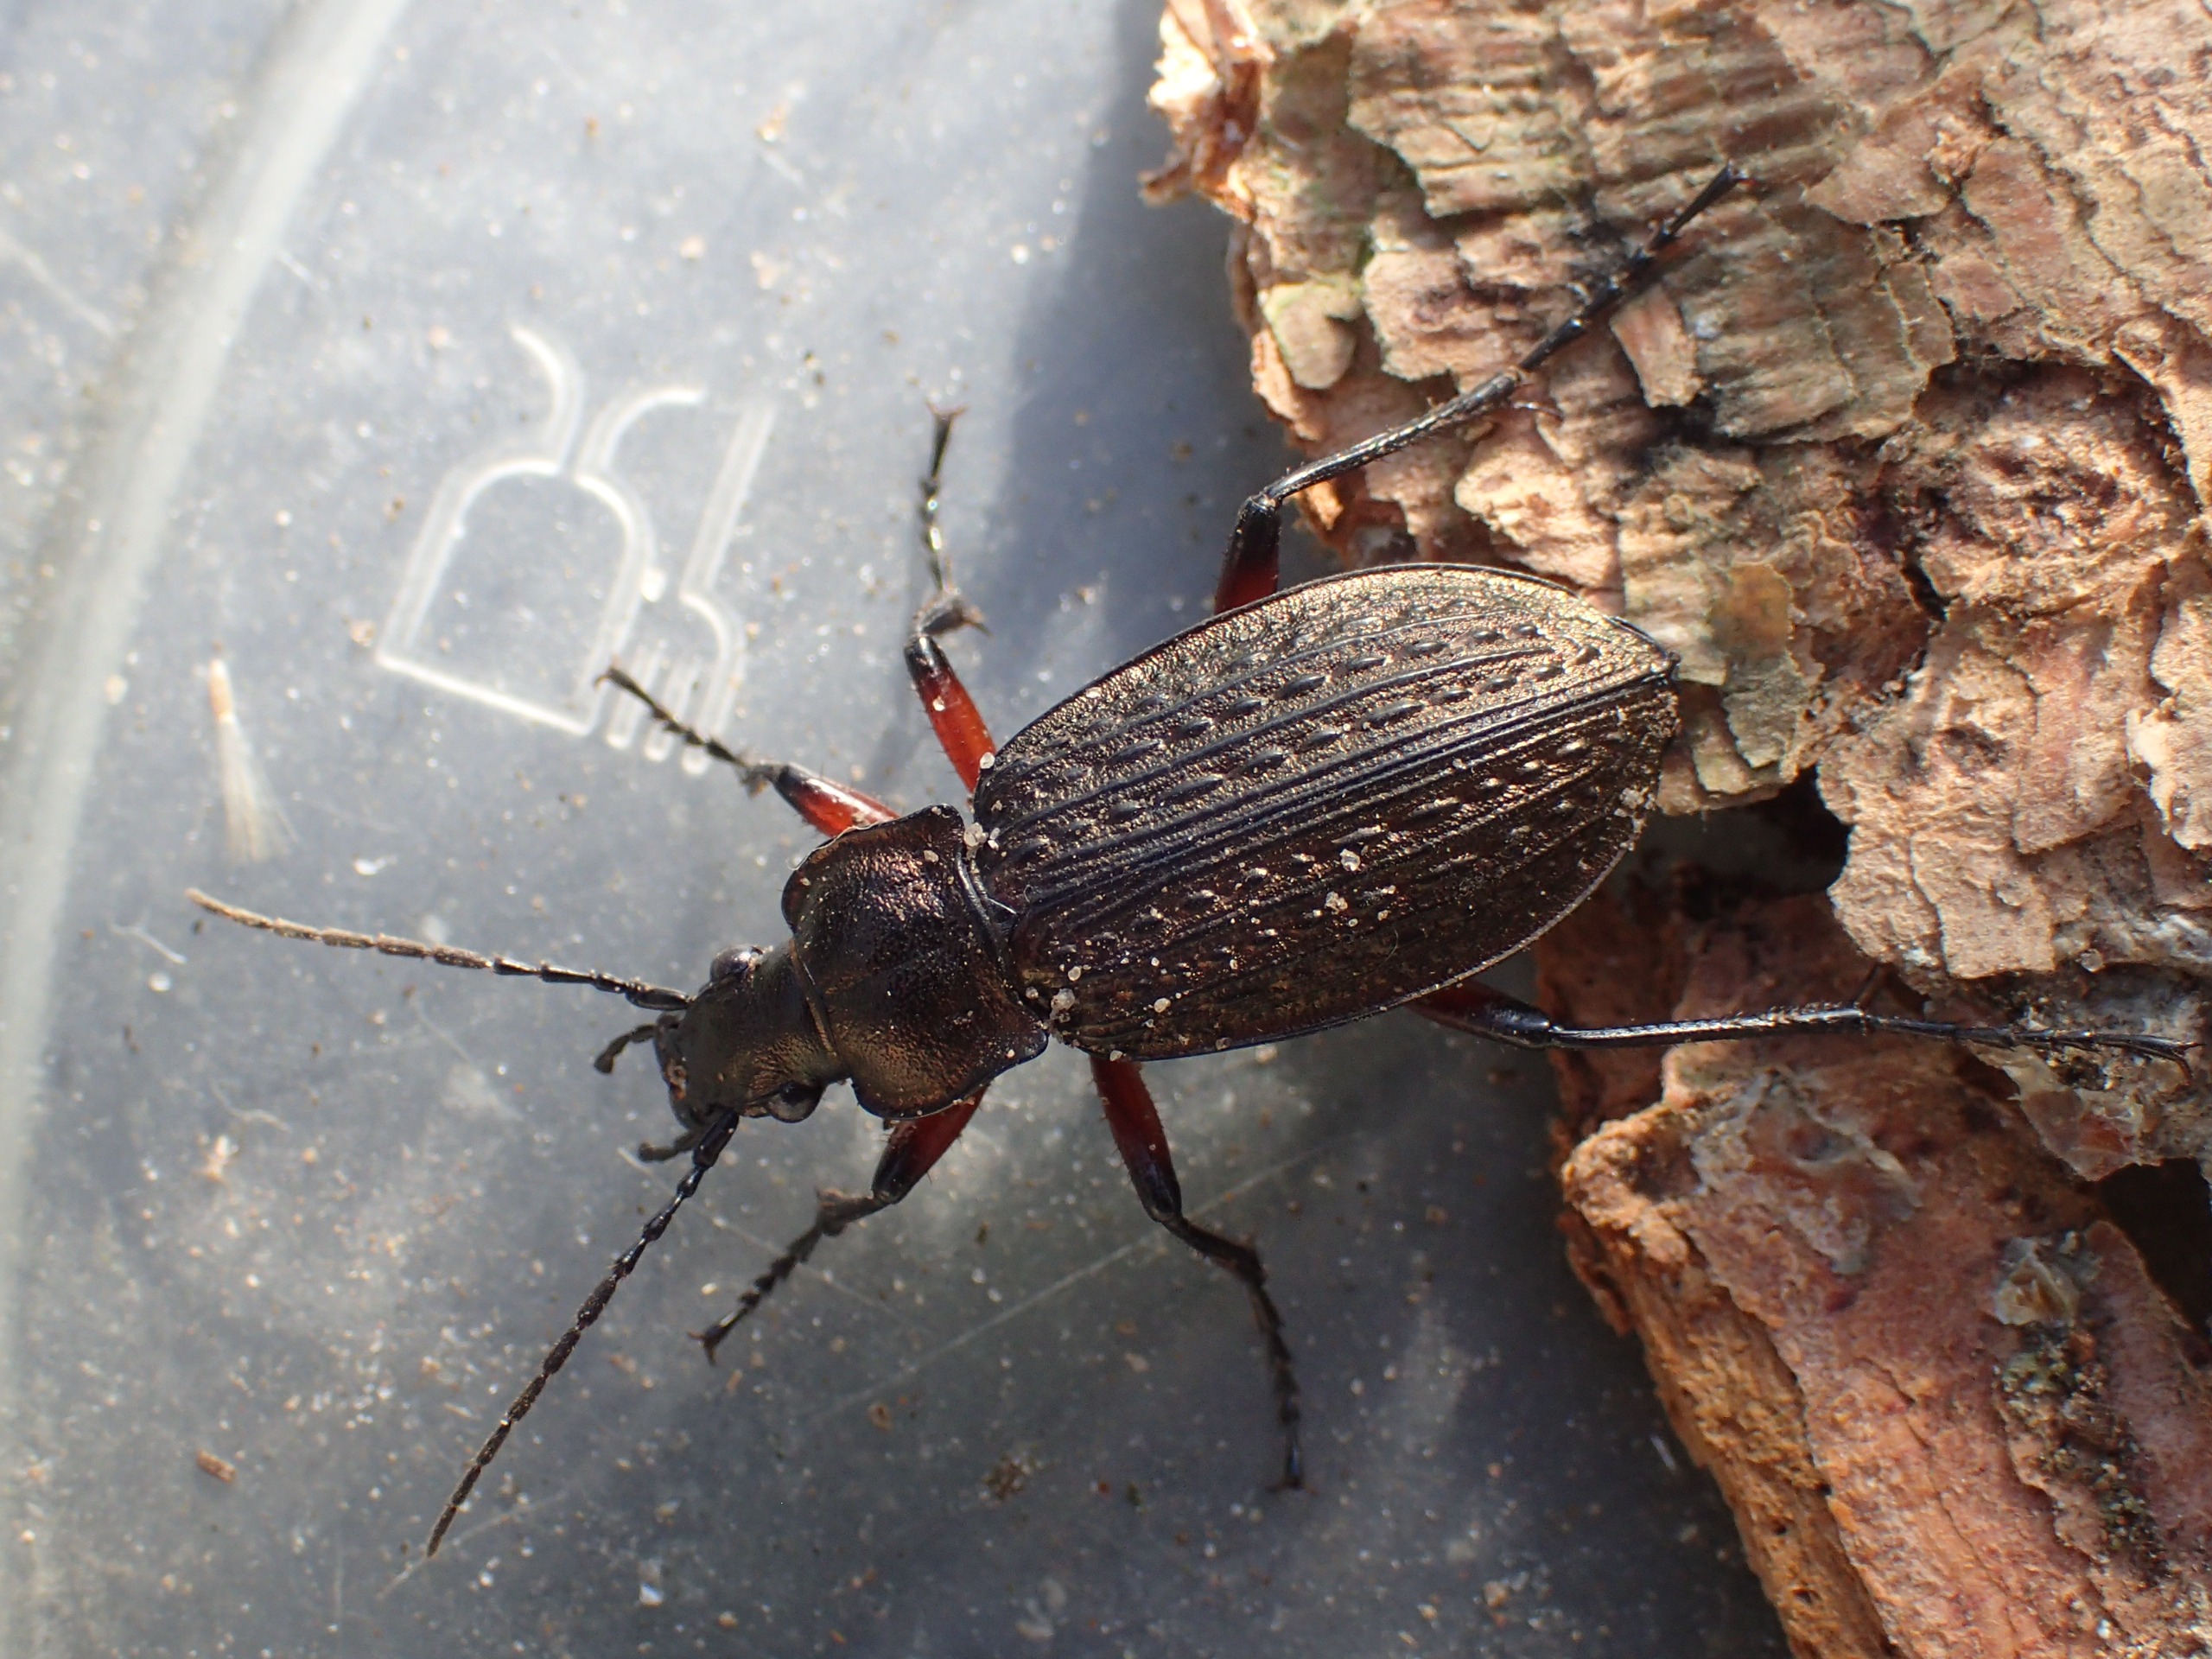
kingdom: Animalia
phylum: Arthropoda
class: Insecta
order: Coleoptera
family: Carabidae
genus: Carabus
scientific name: Carabus granulatus
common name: Kornet løber
